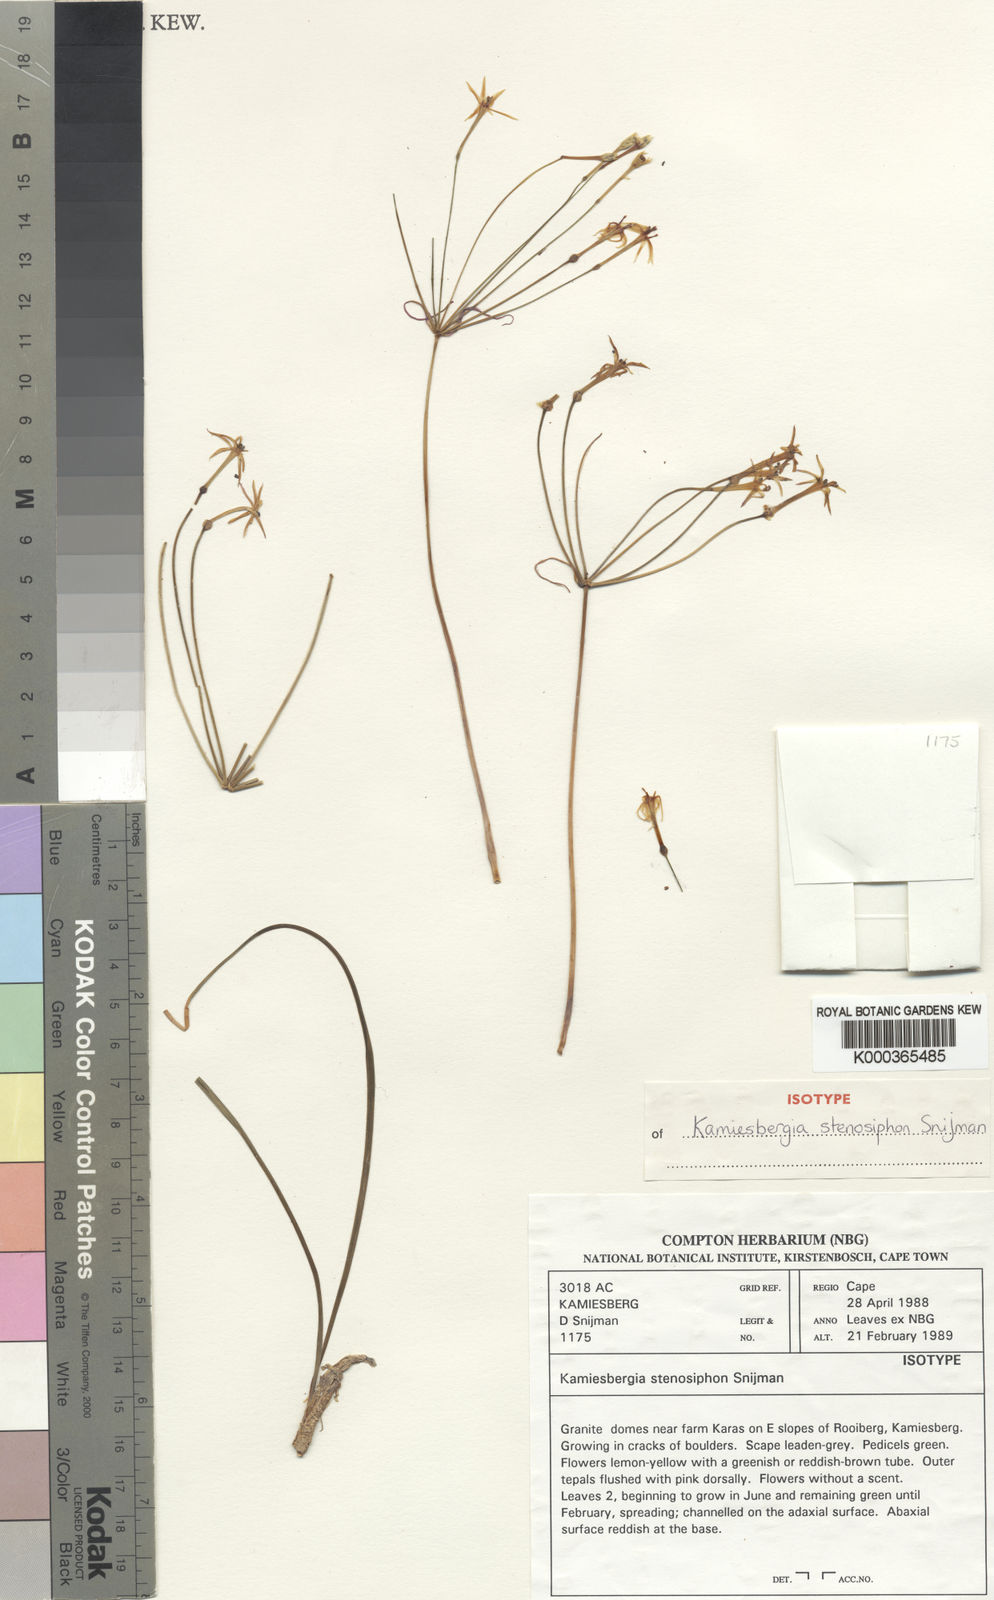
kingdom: Plantae
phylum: Tracheophyta
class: Liliopsida
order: Asparagales
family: Amaryllidaceae
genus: Hessea
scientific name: Hessea
